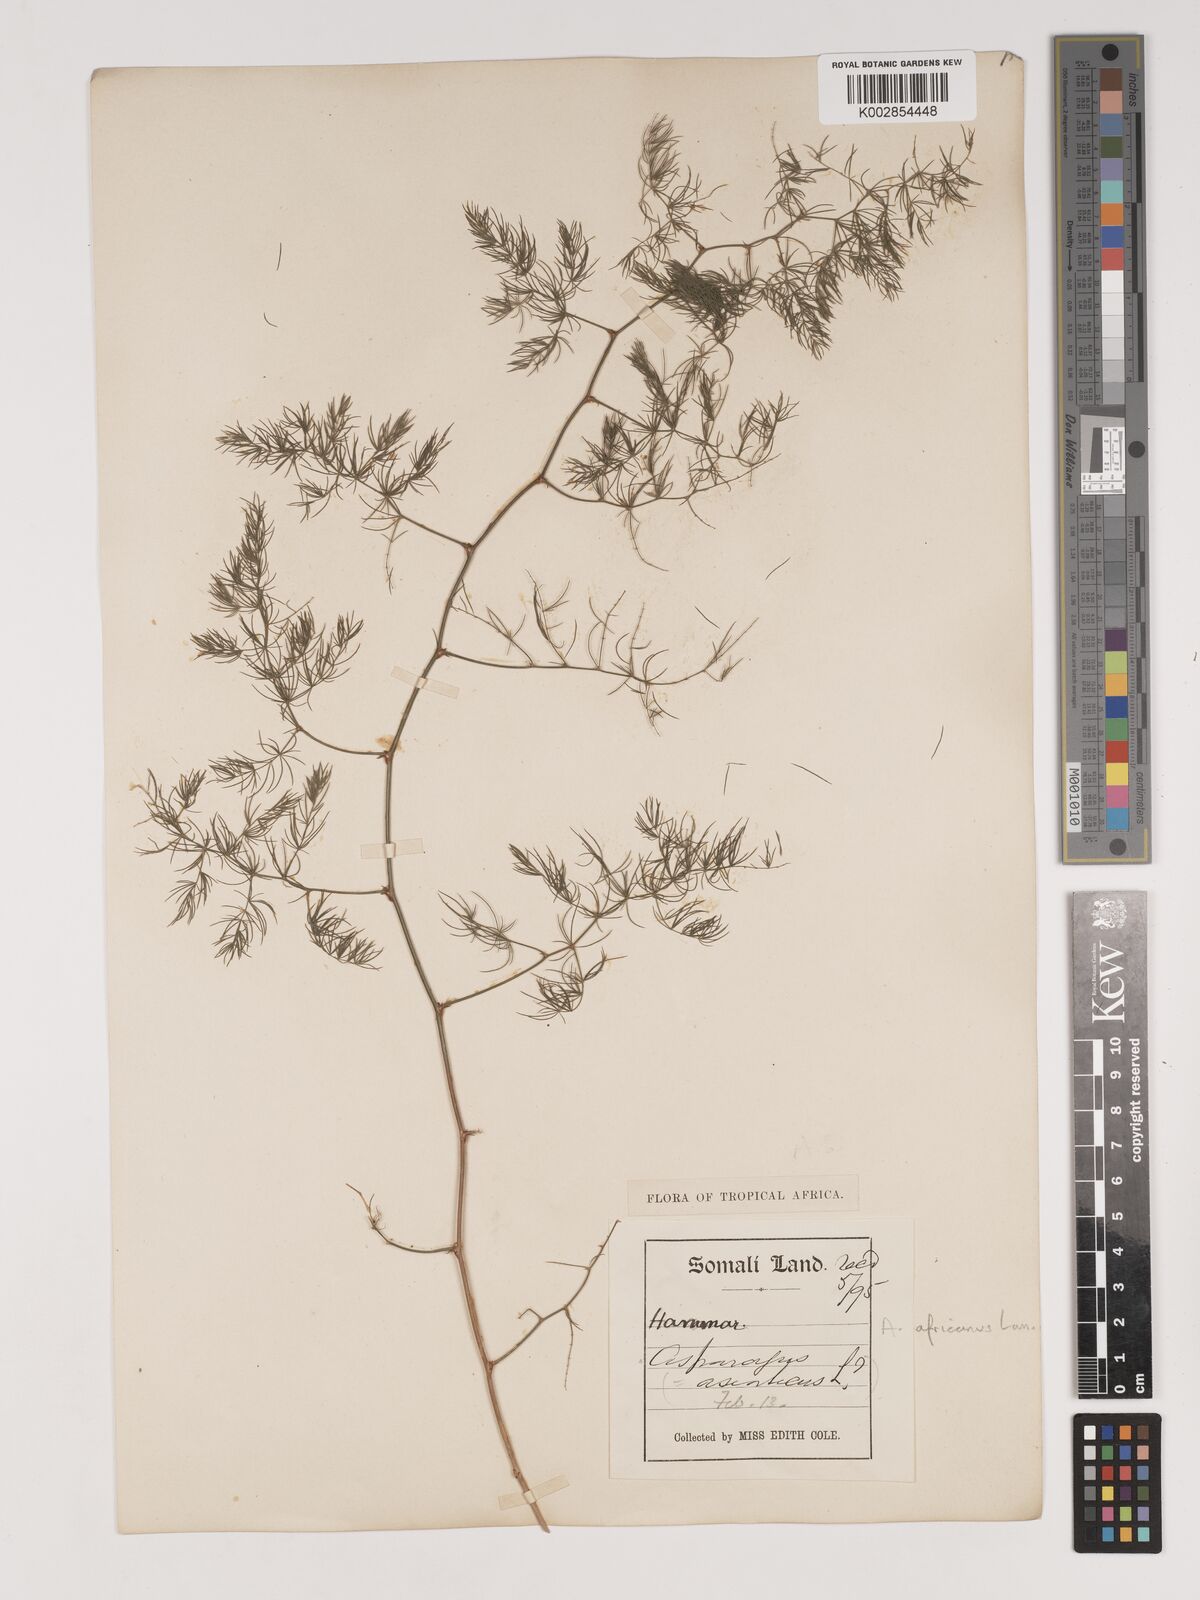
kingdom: Plantae
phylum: Tracheophyta
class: Liliopsida
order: Asparagales
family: Asparagaceae
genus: Asparagus
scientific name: Asparagus
